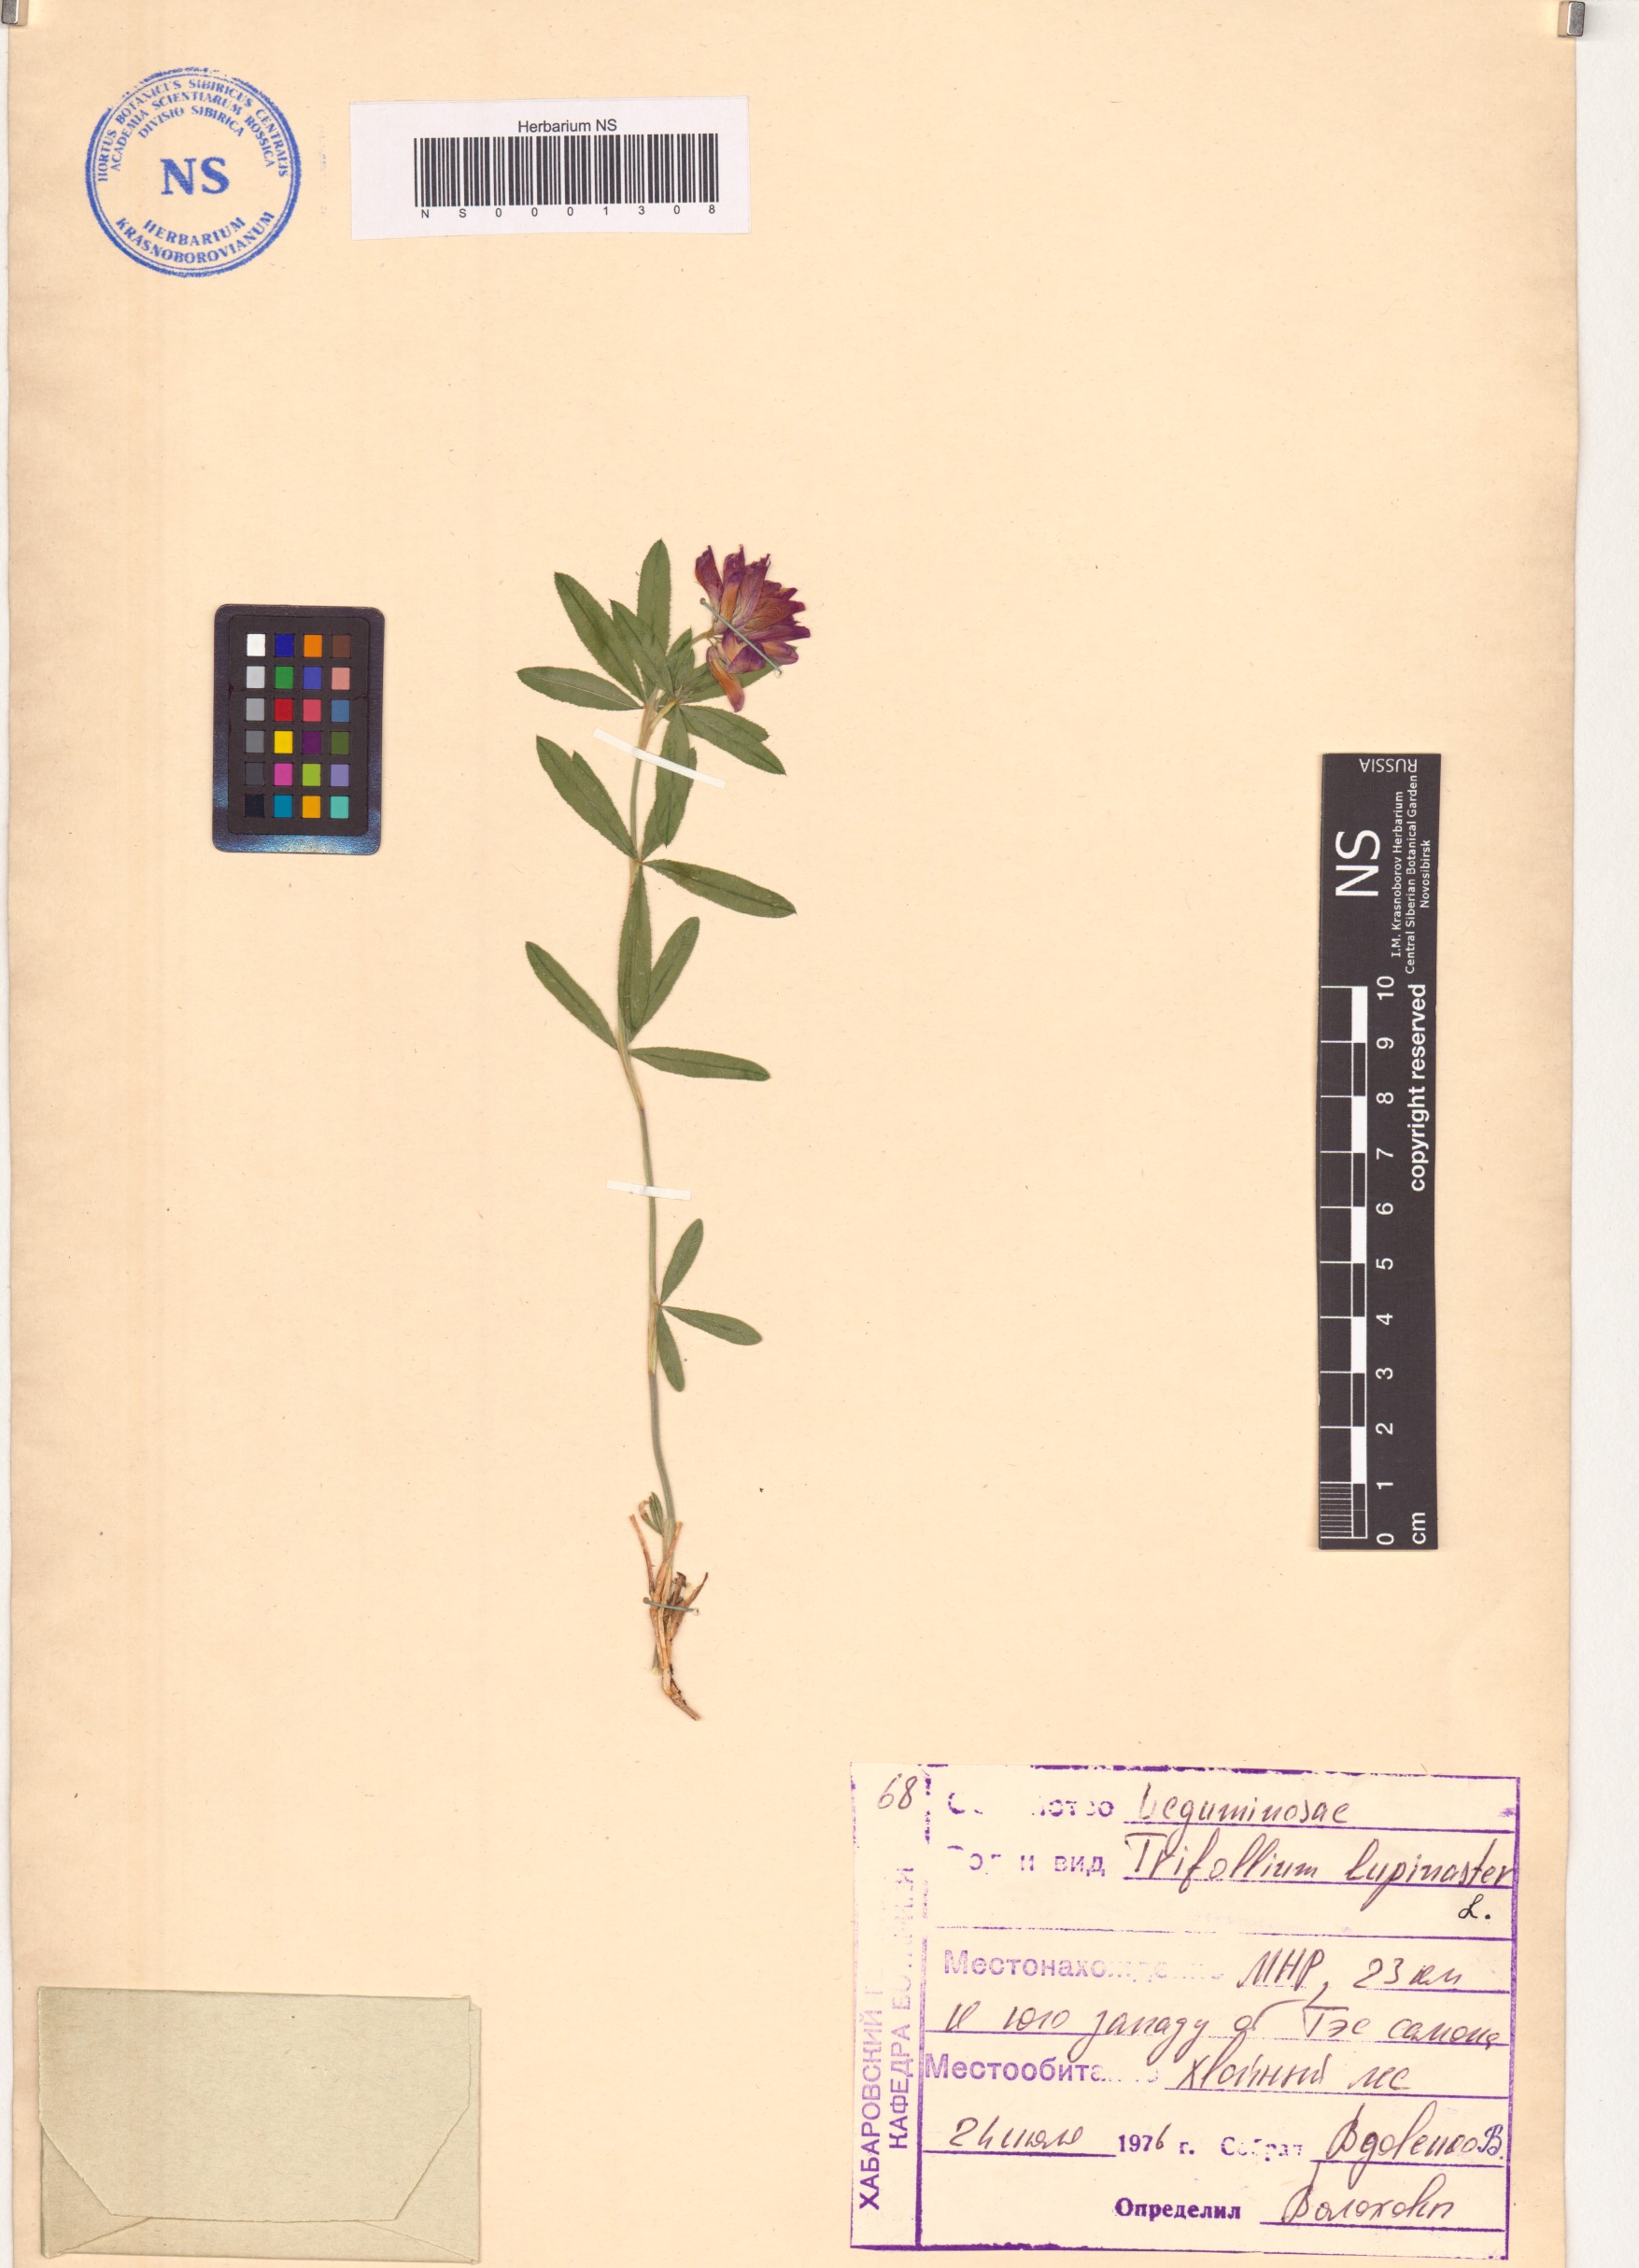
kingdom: Plantae
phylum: Tracheophyta
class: Magnoliopsida
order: Fabales
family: Fabaceae
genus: Trifolium
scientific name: Trifolium lupinaster
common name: Lupine clover
